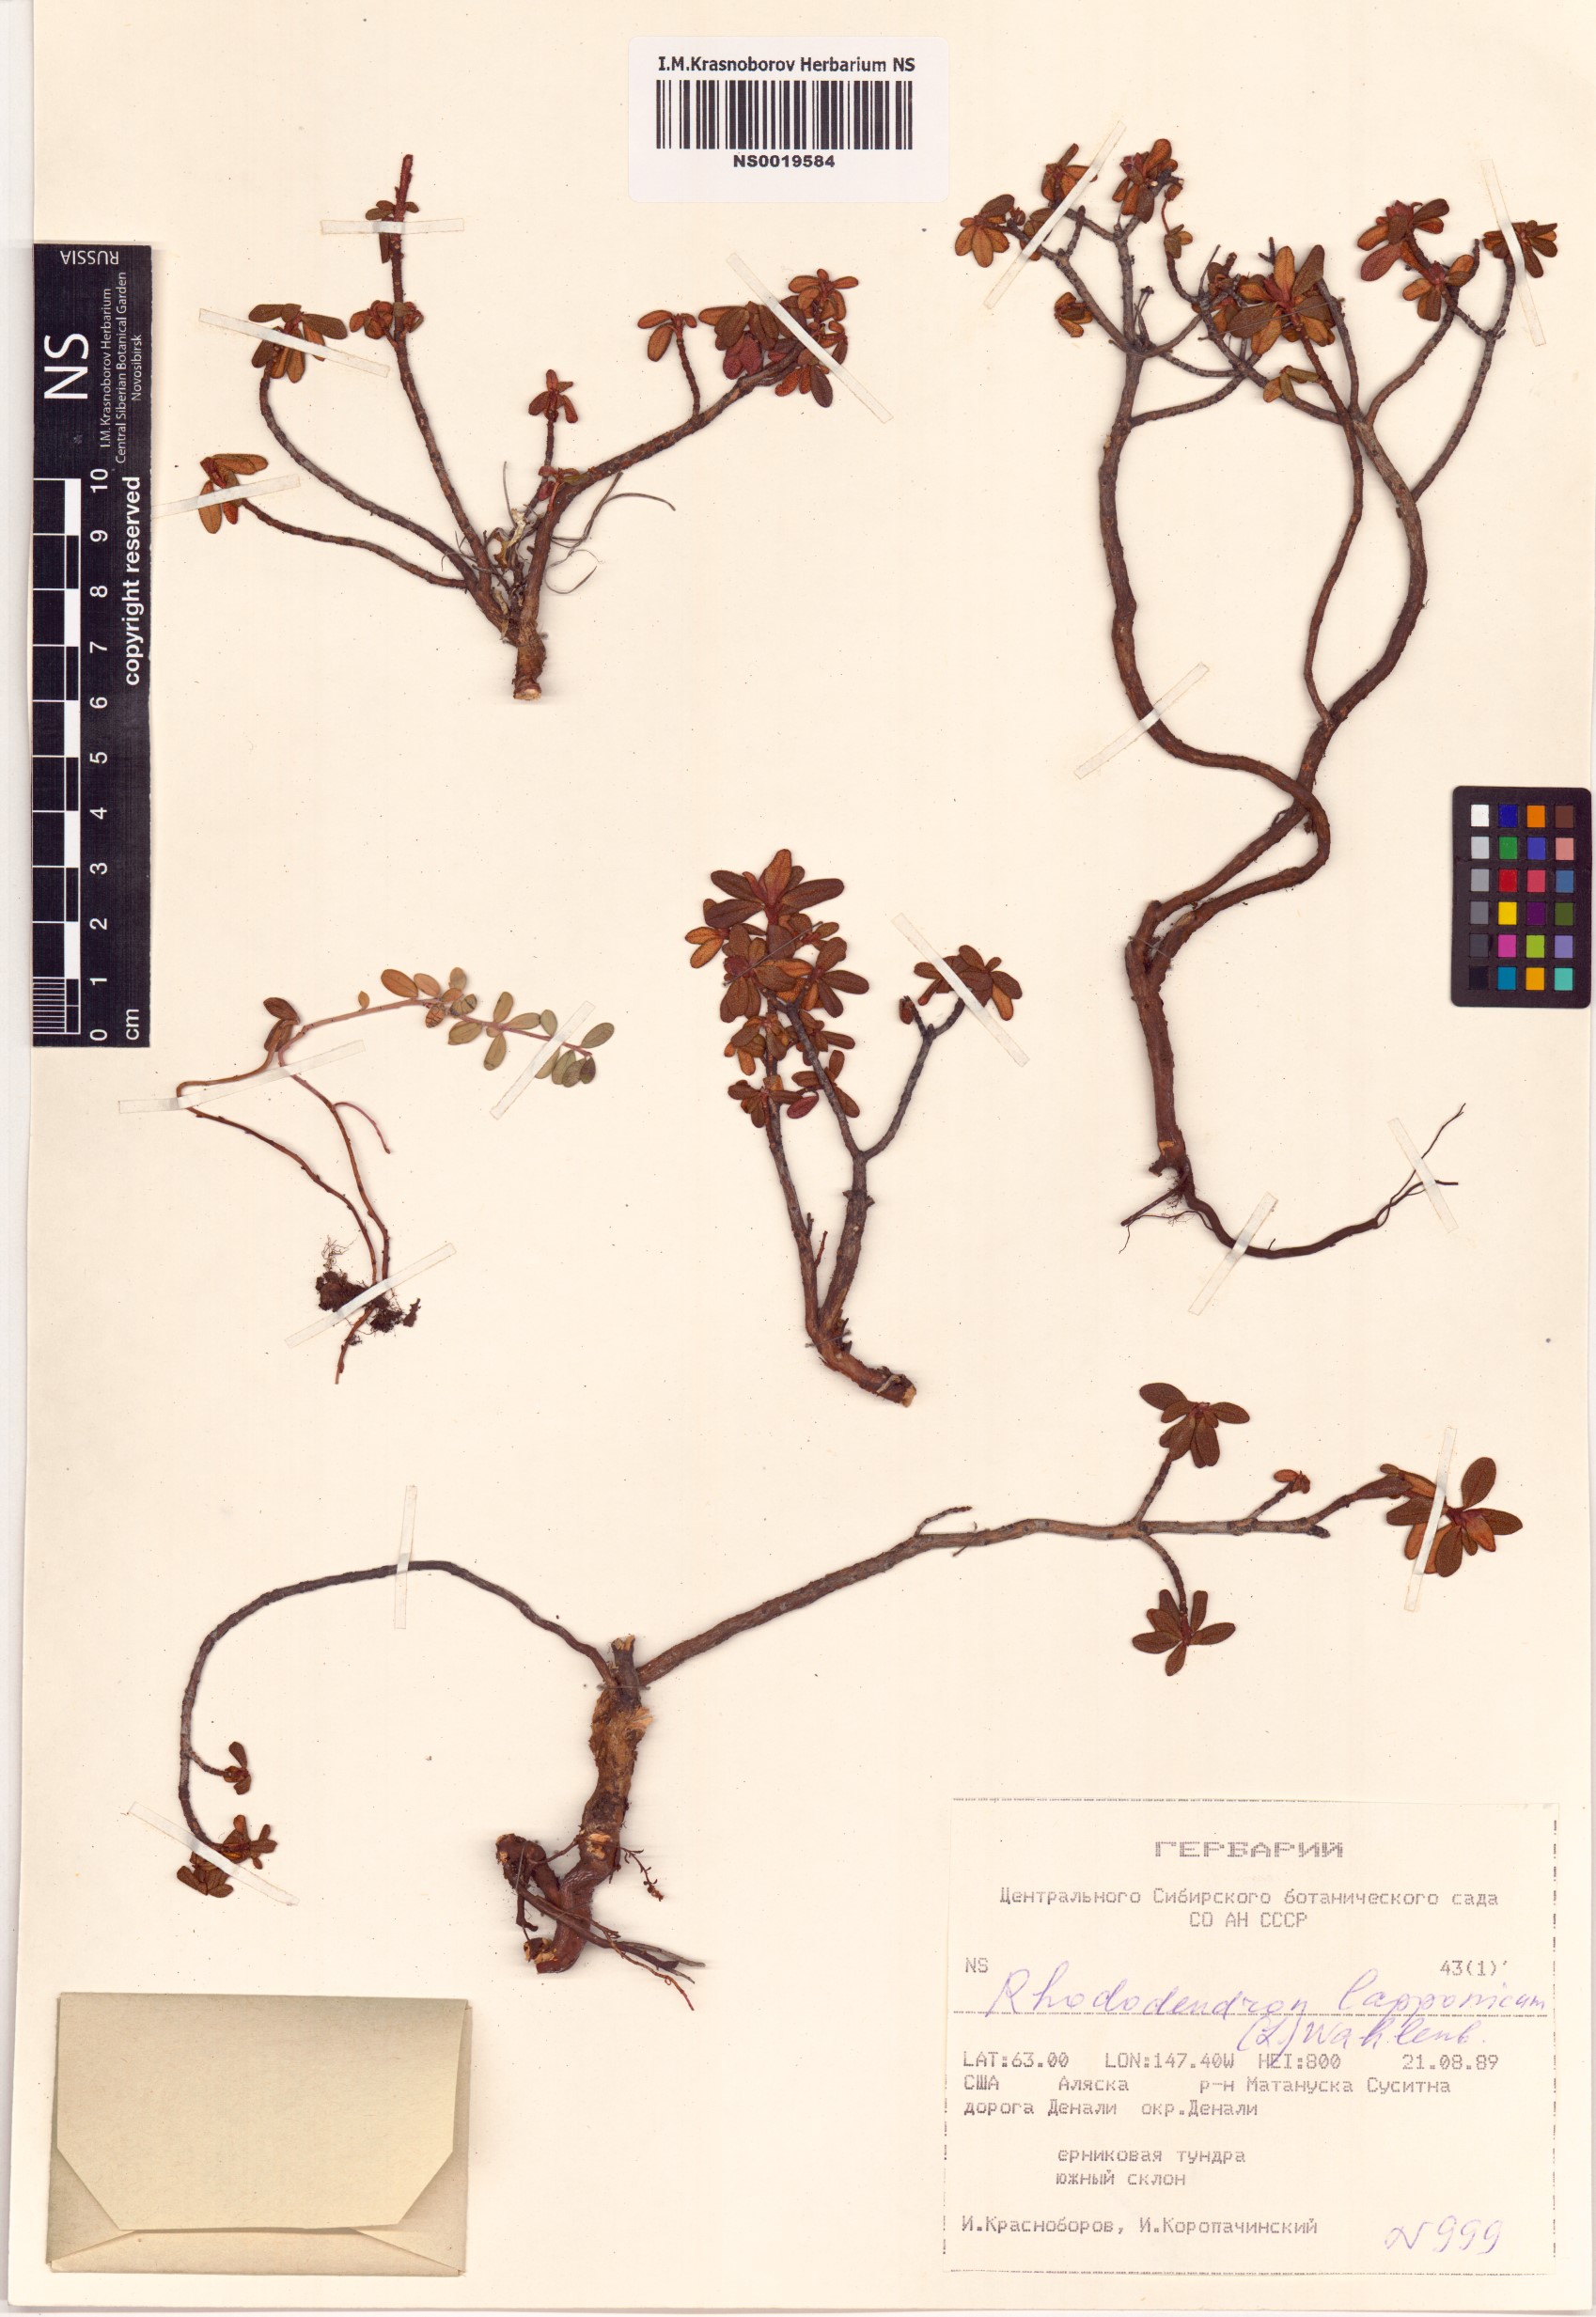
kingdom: Plantae
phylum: Tracheophyta
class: Magnoliopsida
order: Ericales
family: Ericaceae
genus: Rhododendron
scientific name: Rhododendron lapponicum
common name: Lapland rhododendron
